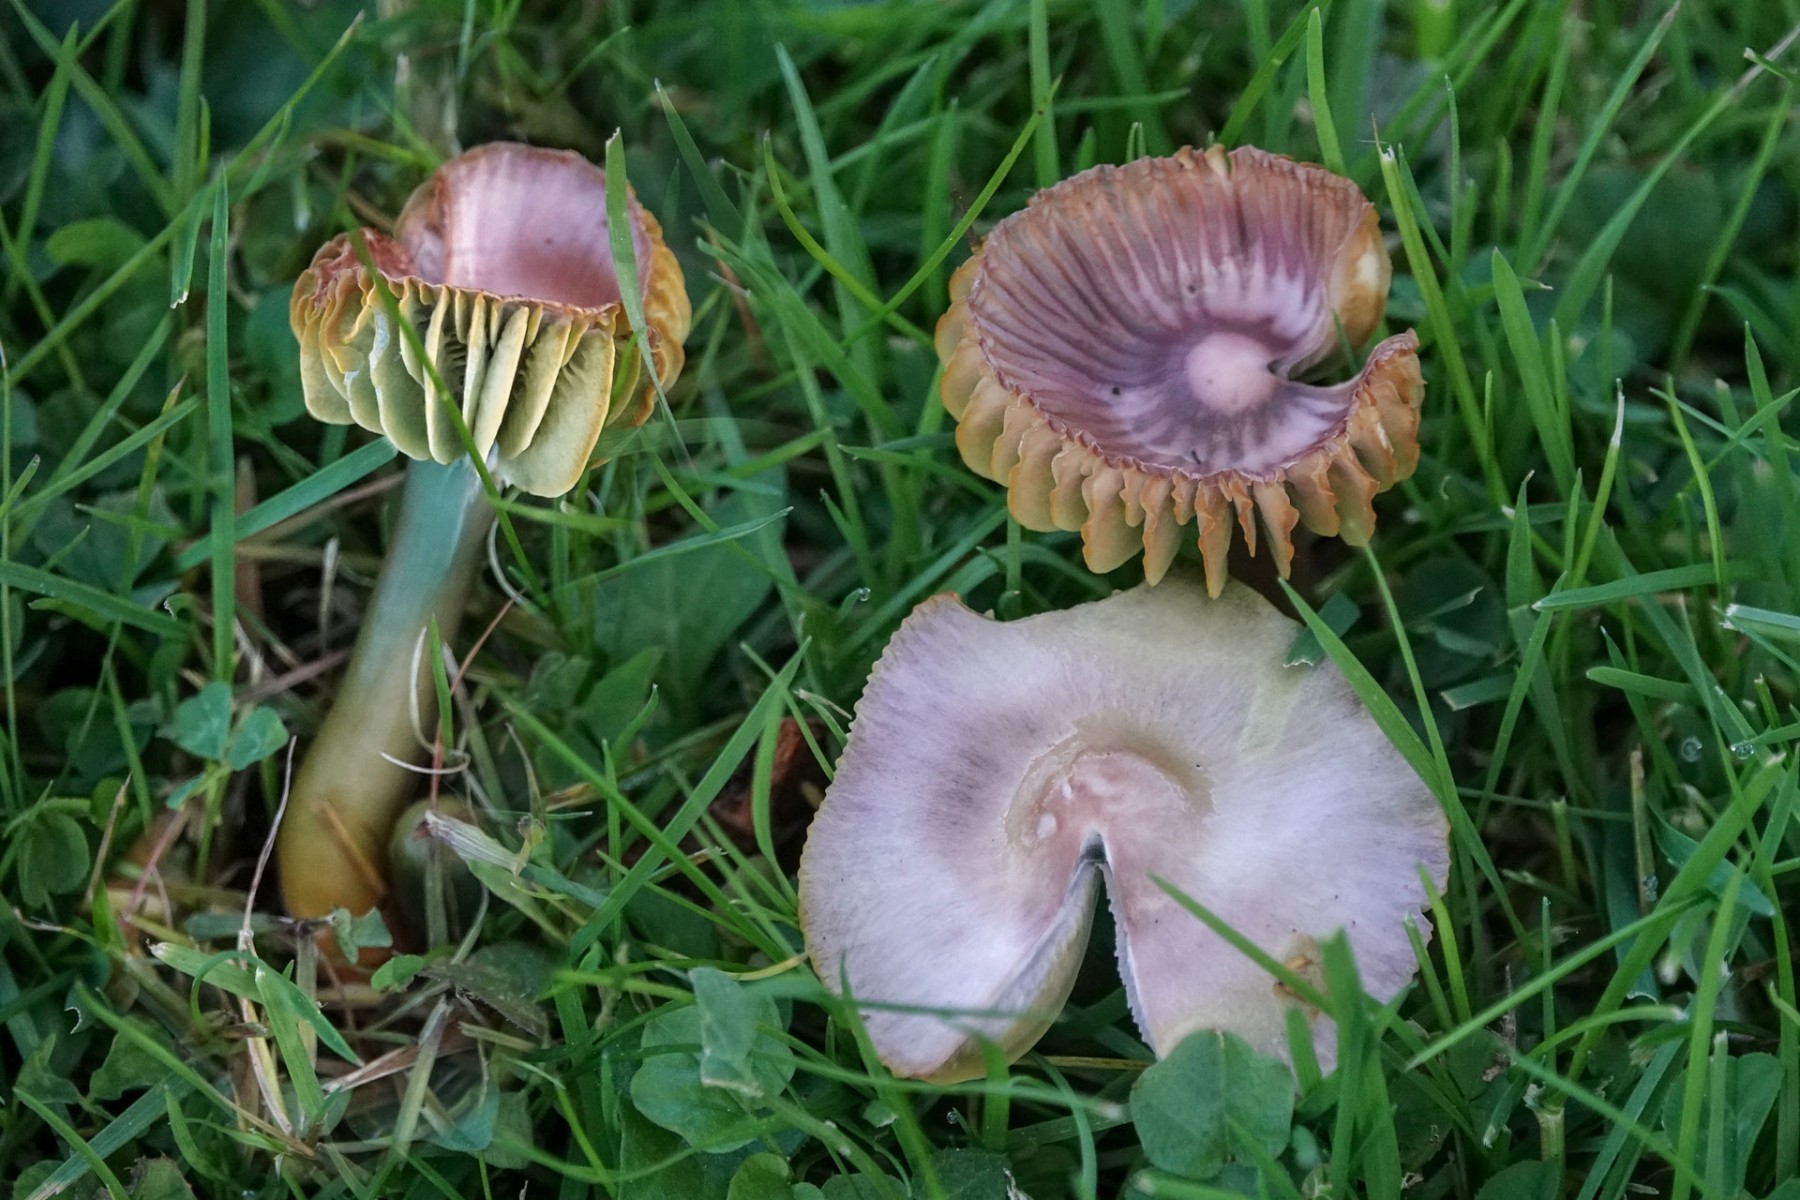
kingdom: Fungi
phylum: Basidiomycota
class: Agaricomycetes
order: Agaricales
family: Hygrophoraceae
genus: Gliophorus
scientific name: Gliophorus psittacinus
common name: papegøje-vokshat
